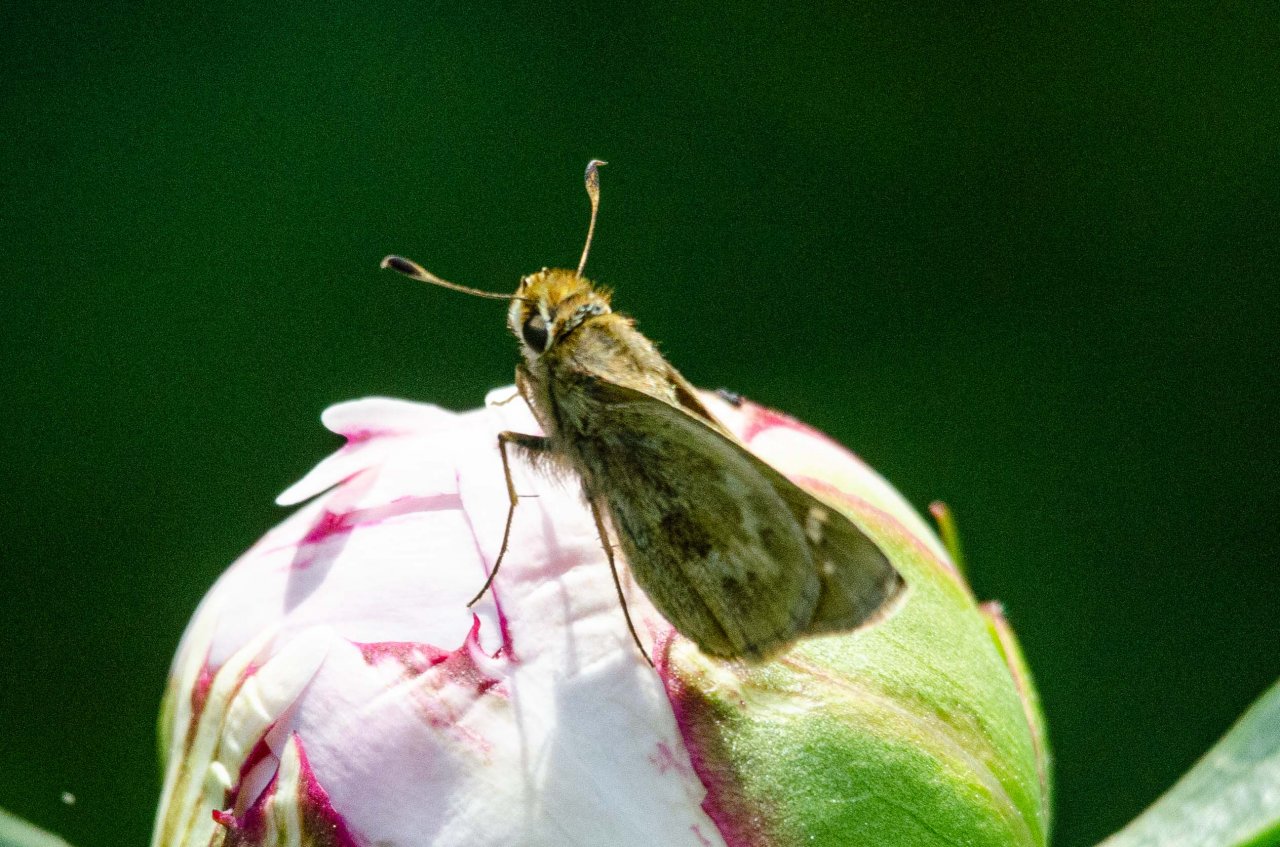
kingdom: Animalia
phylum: Arthropoda
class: Insecta
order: Lepidoptera
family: Hesperiidae
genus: Atalopedes
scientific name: Atalopedes campestris
